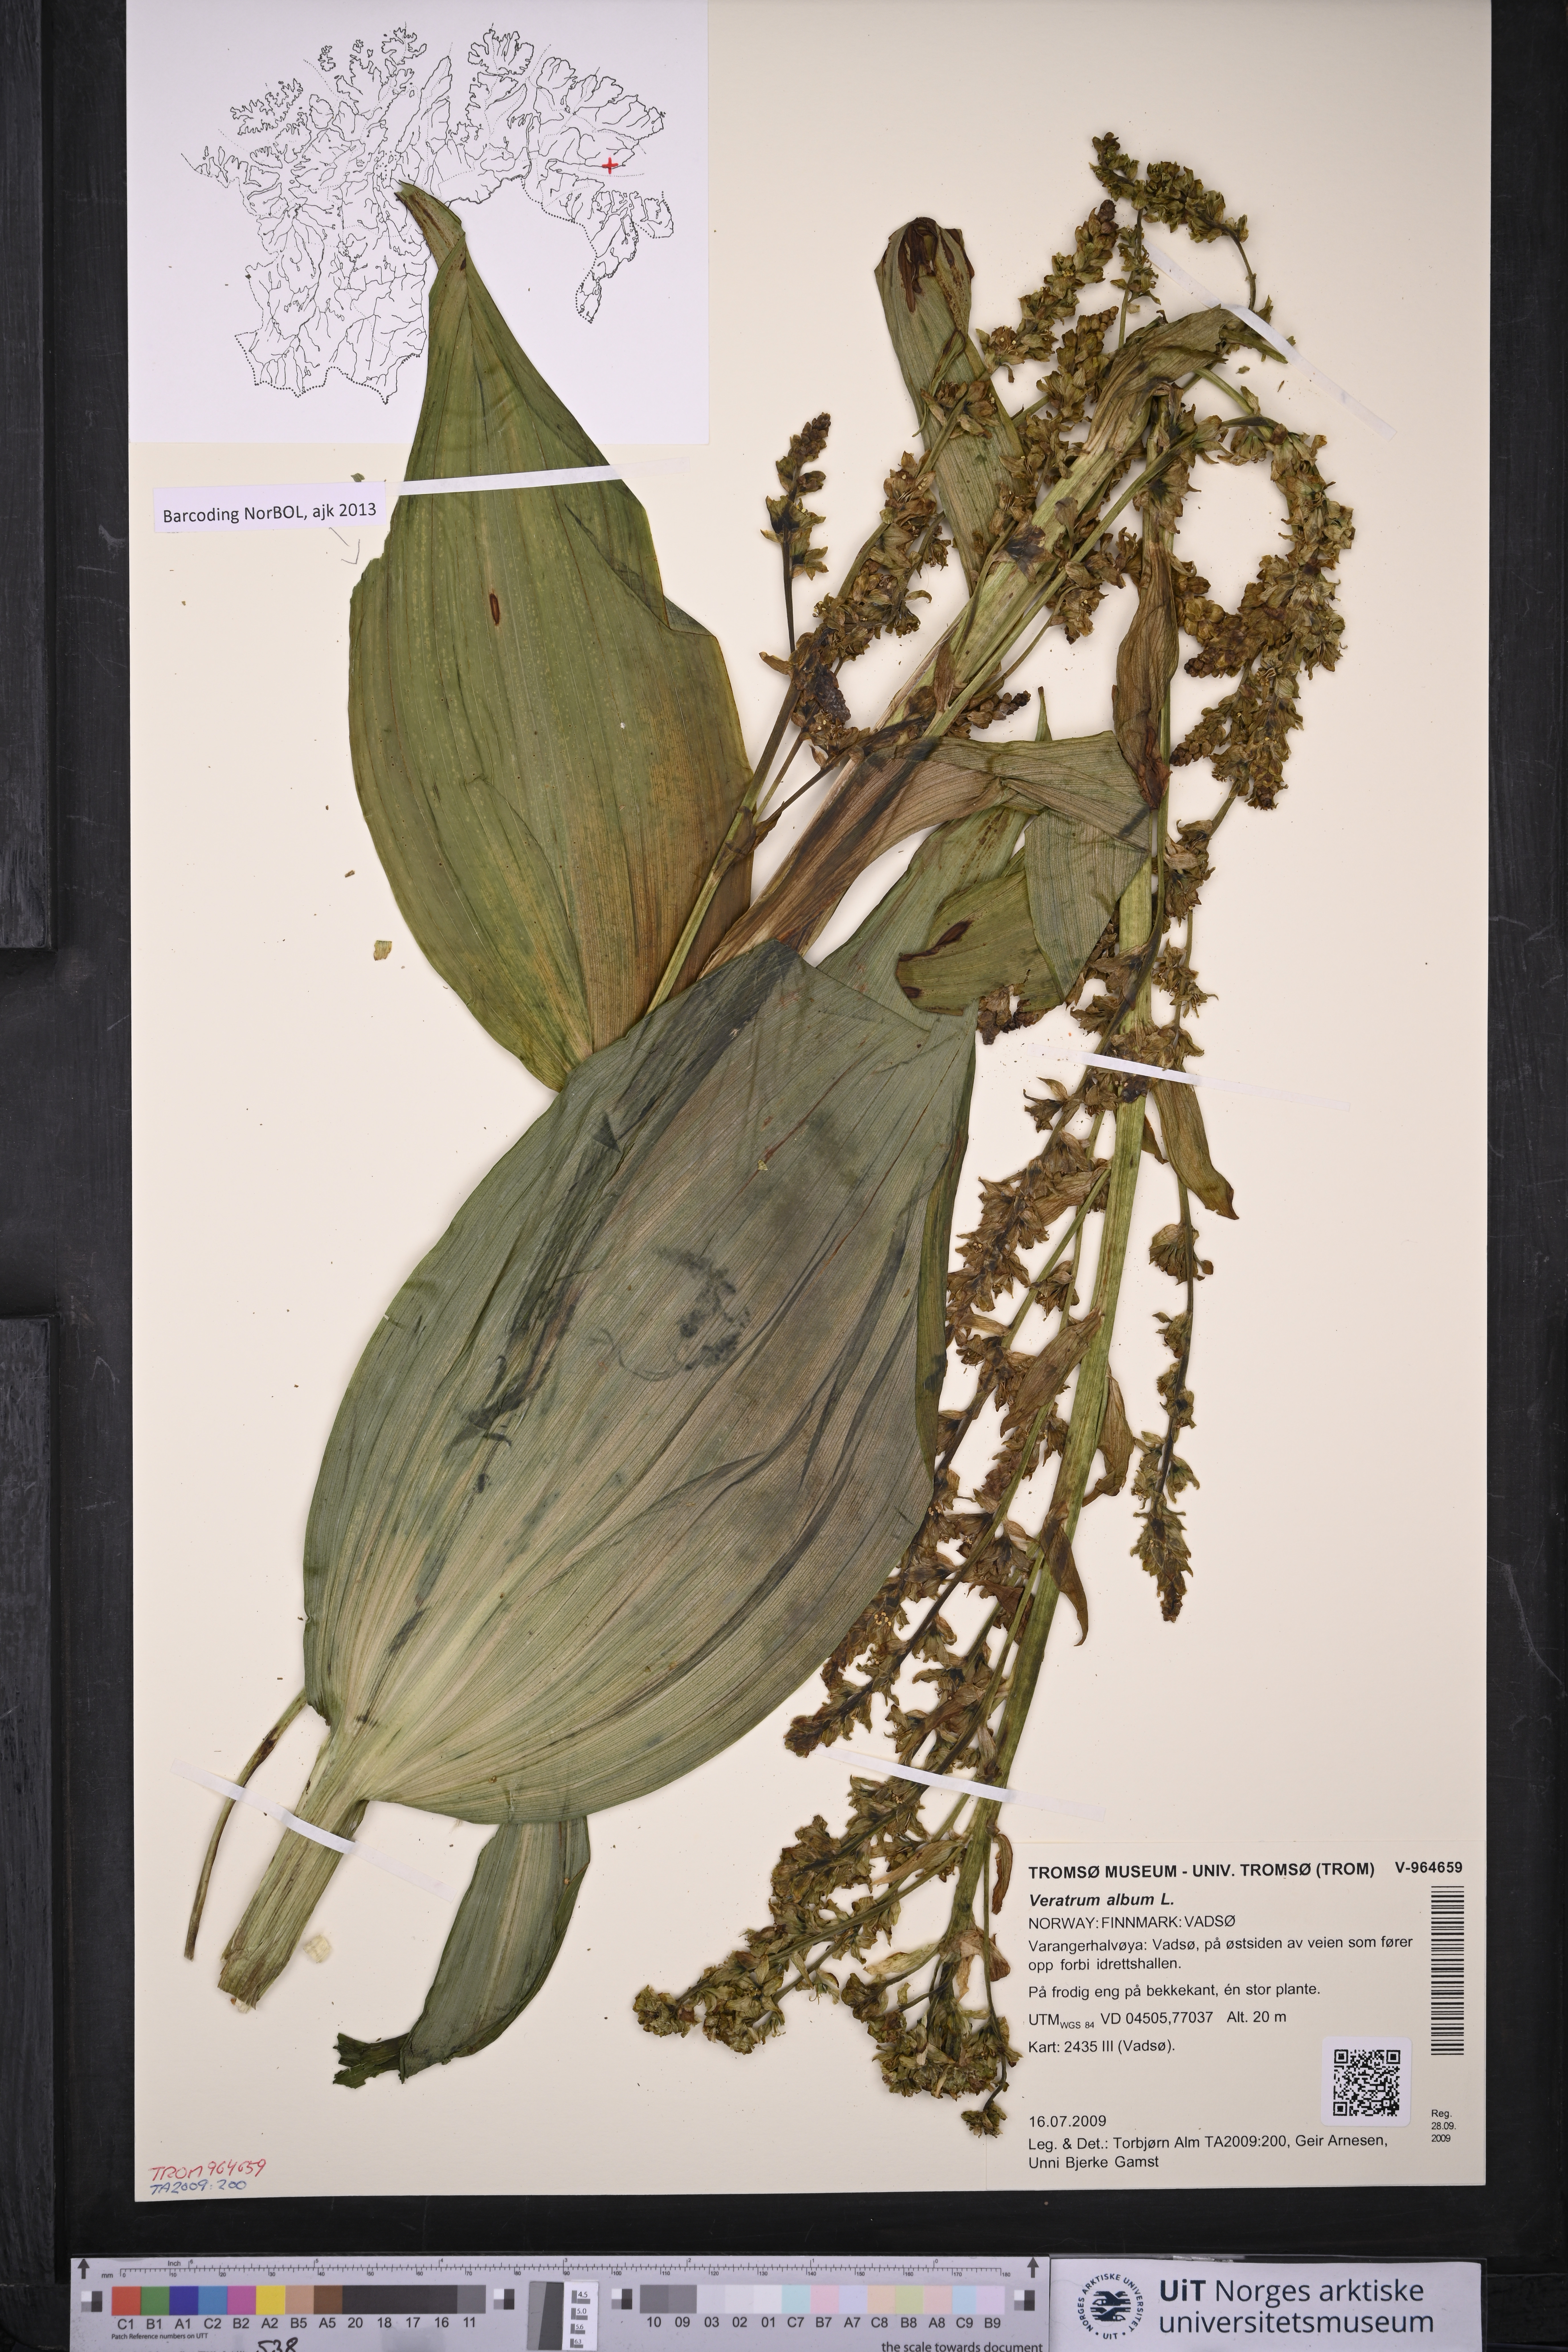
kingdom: Plantae
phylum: Tracheophyta
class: Liliopsida
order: Liliales
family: Melanthiaceae
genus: Veratrum
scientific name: Veratrum album
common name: White veratrum
